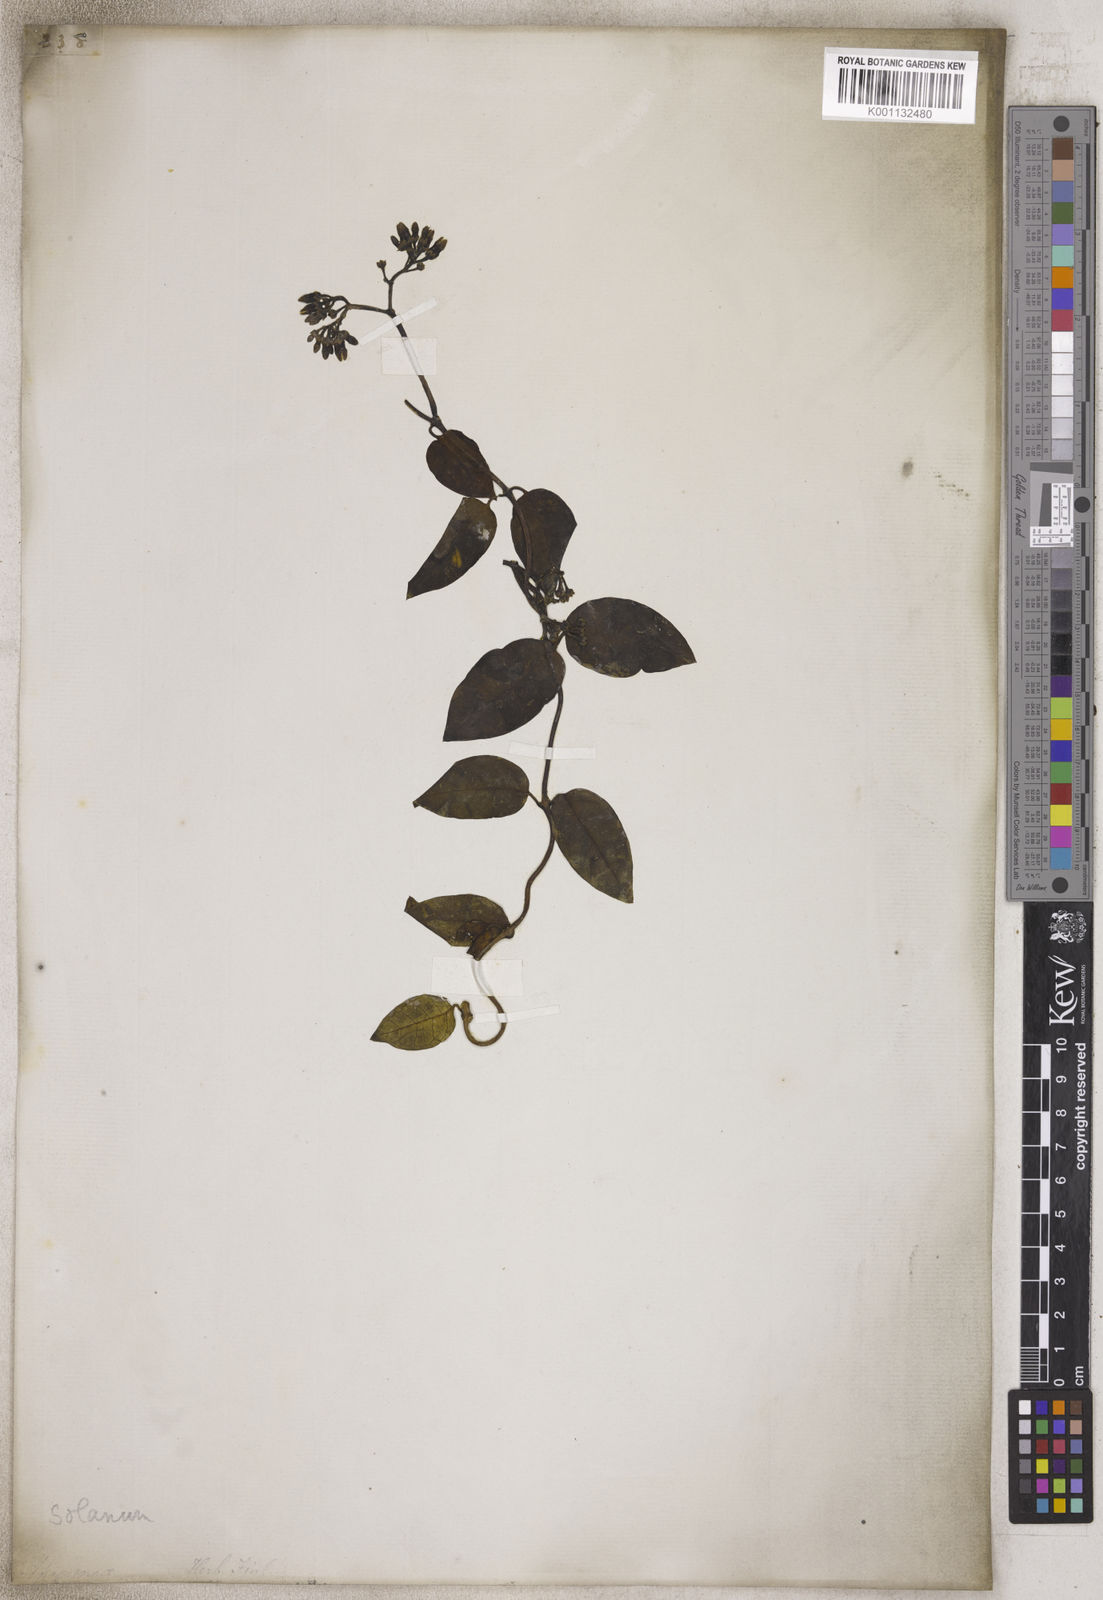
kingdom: Plantae
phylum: Tracheophyta
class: Magnoliopsida
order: Solanales
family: Solanaceae
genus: Solanum
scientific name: Solanum
